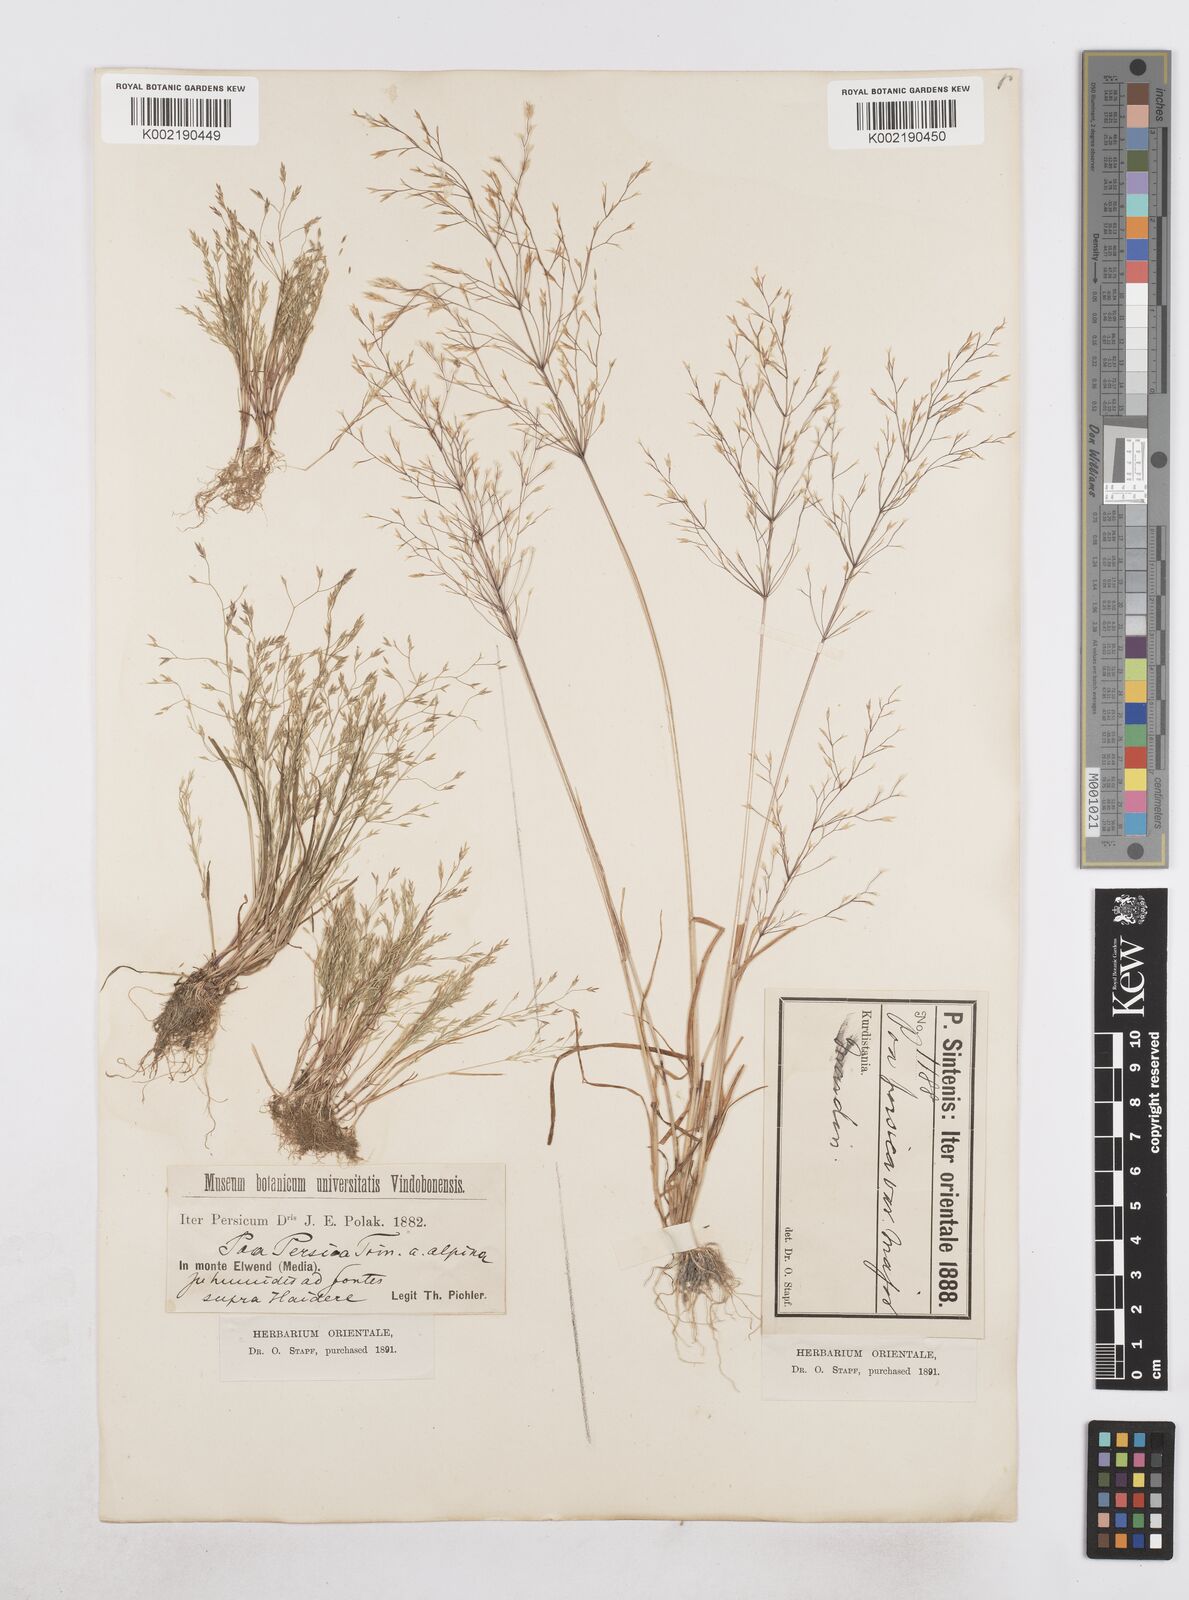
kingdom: Plantae
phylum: Tracheophyta
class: Liliopsida
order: Poales
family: Poaceae
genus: Poa
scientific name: Poa diaphora
